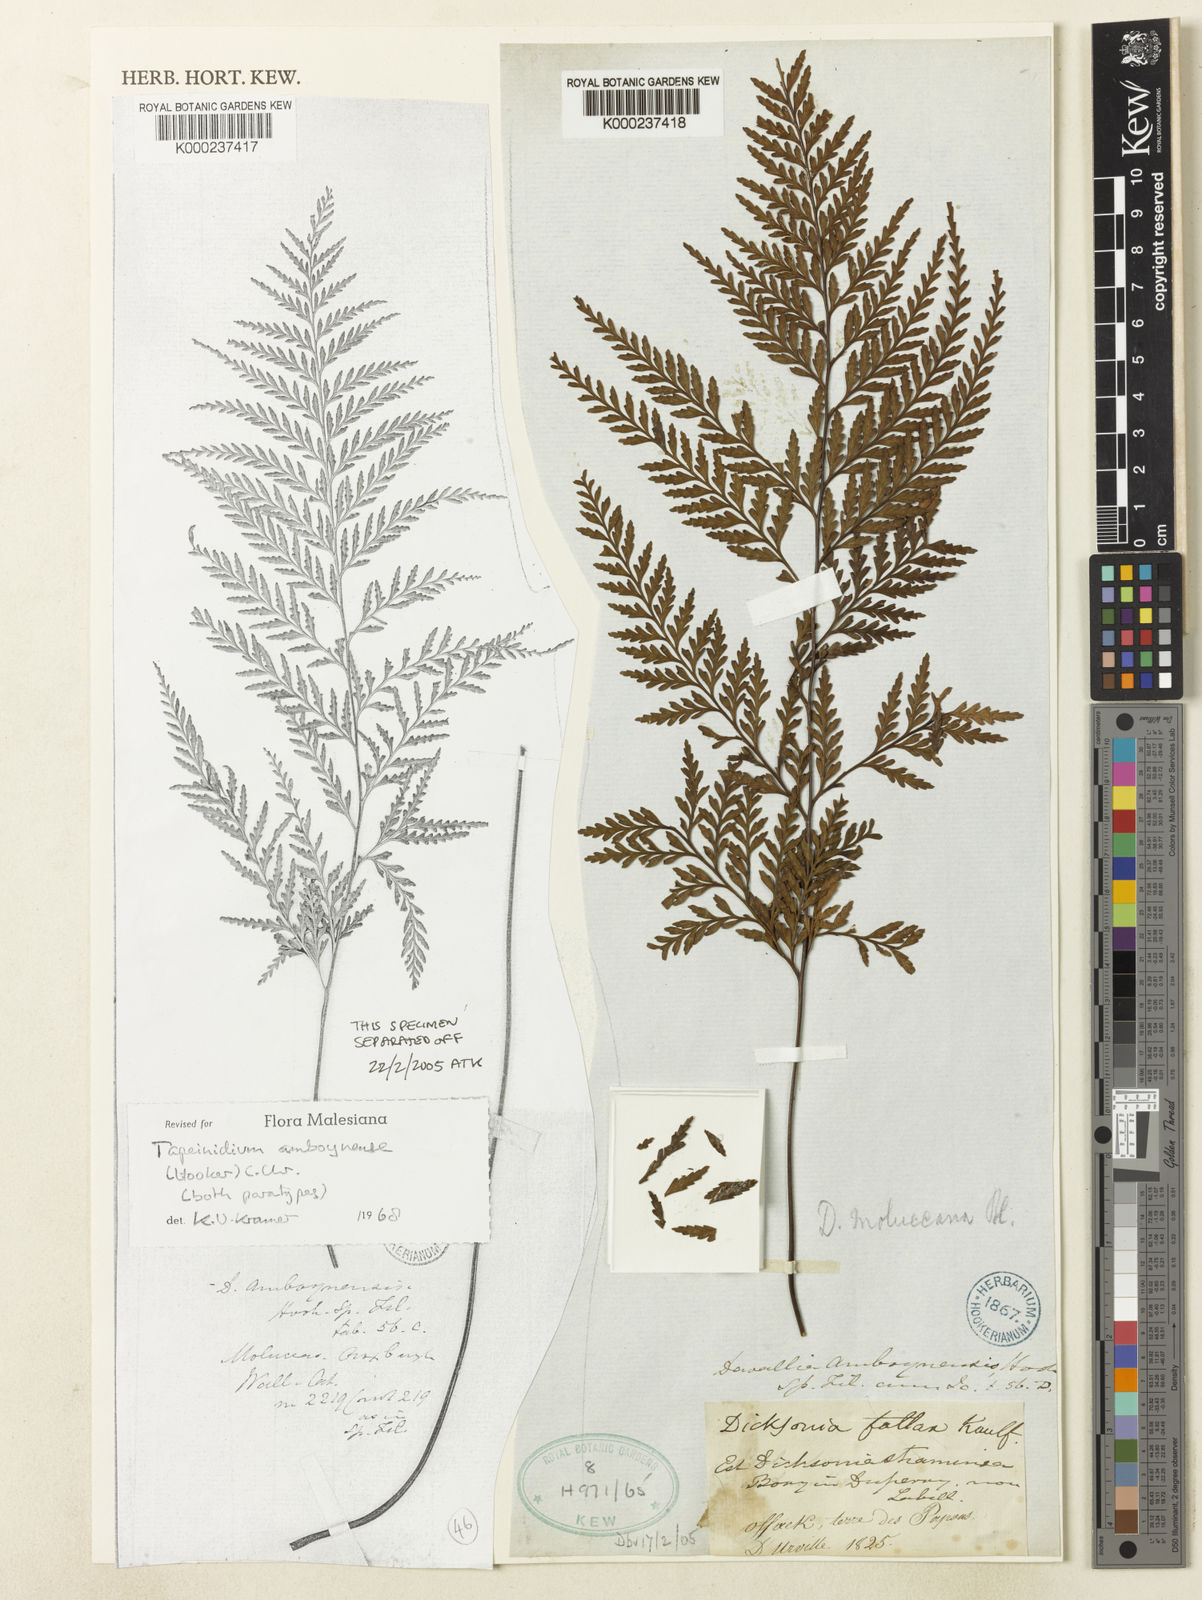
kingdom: Plantae
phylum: Tracheophyta
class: Polypodiopsida
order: Polypodiales
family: Lindsaeaceae
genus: Tapeinidium
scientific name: Tapeinidium moluccanum
